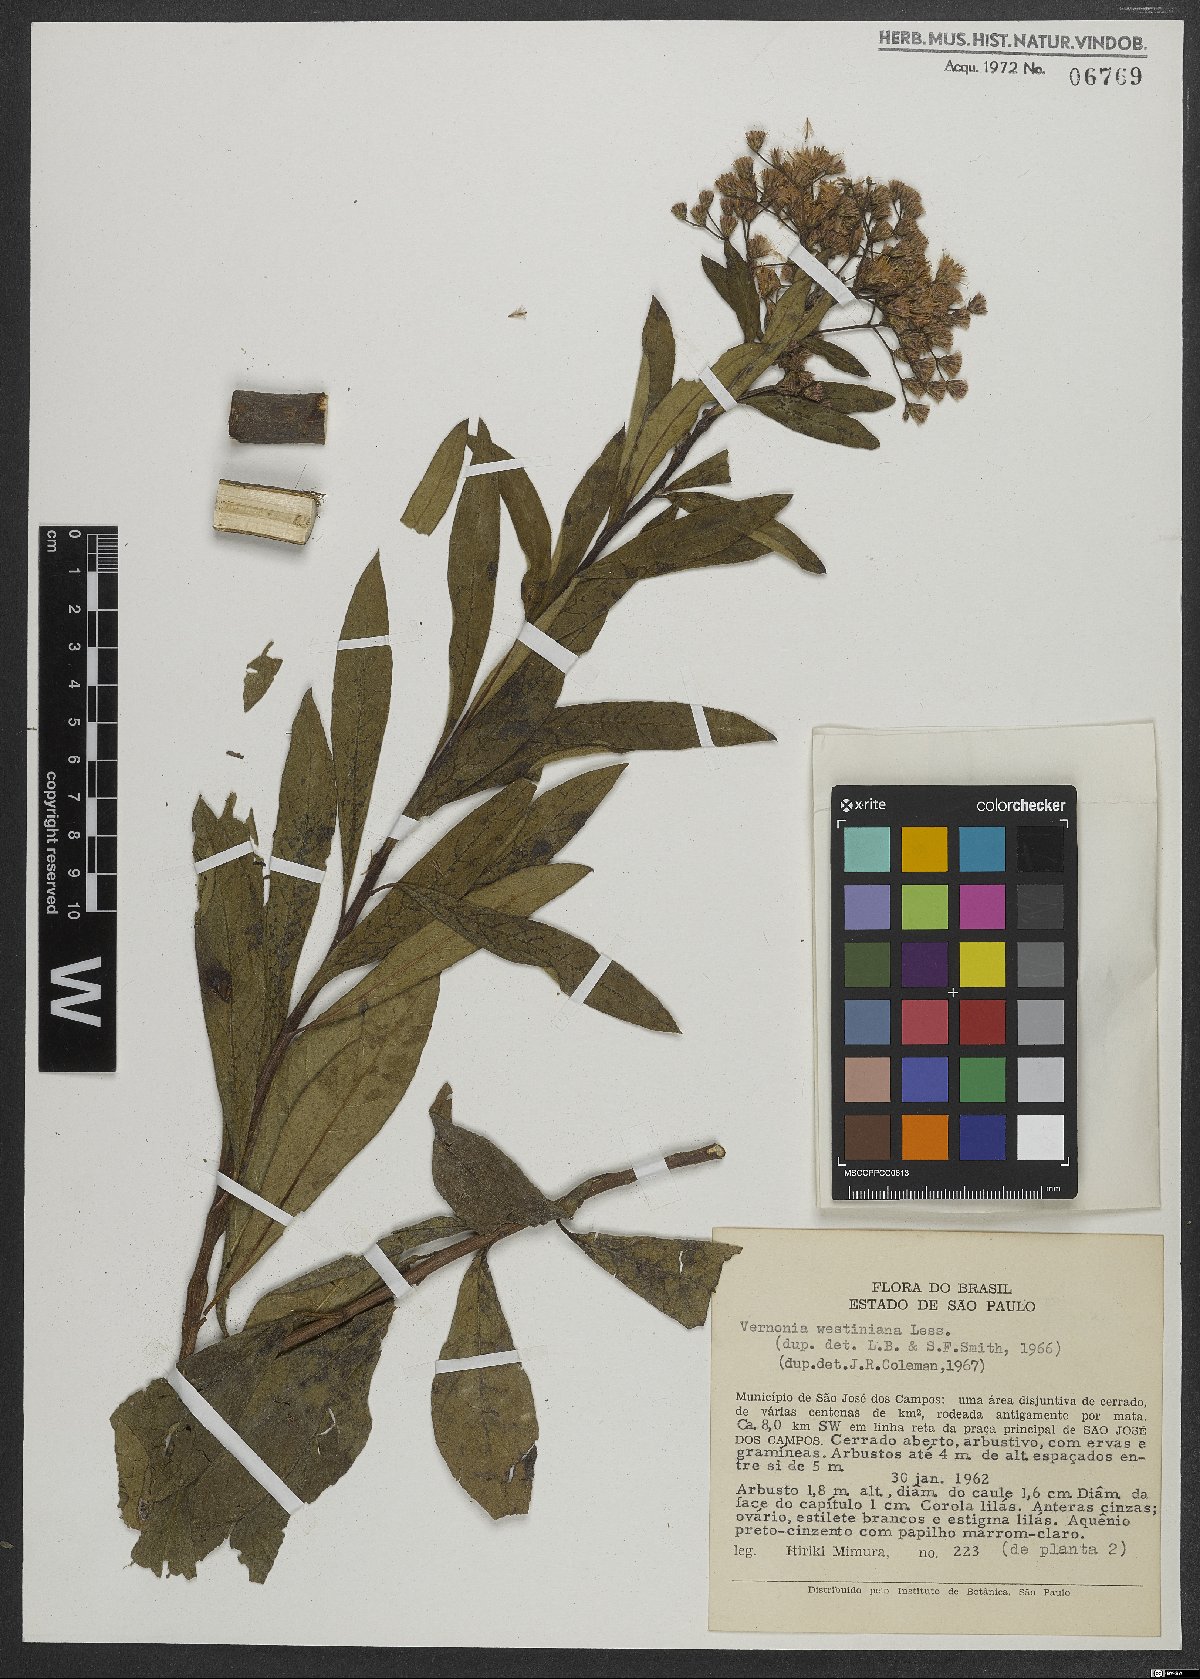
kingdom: Plantae
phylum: Tracheophyta
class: Magnoliopsida
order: Asterales
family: Asteraceae
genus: Vernonanthura
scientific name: Vernonanthura westiniana
